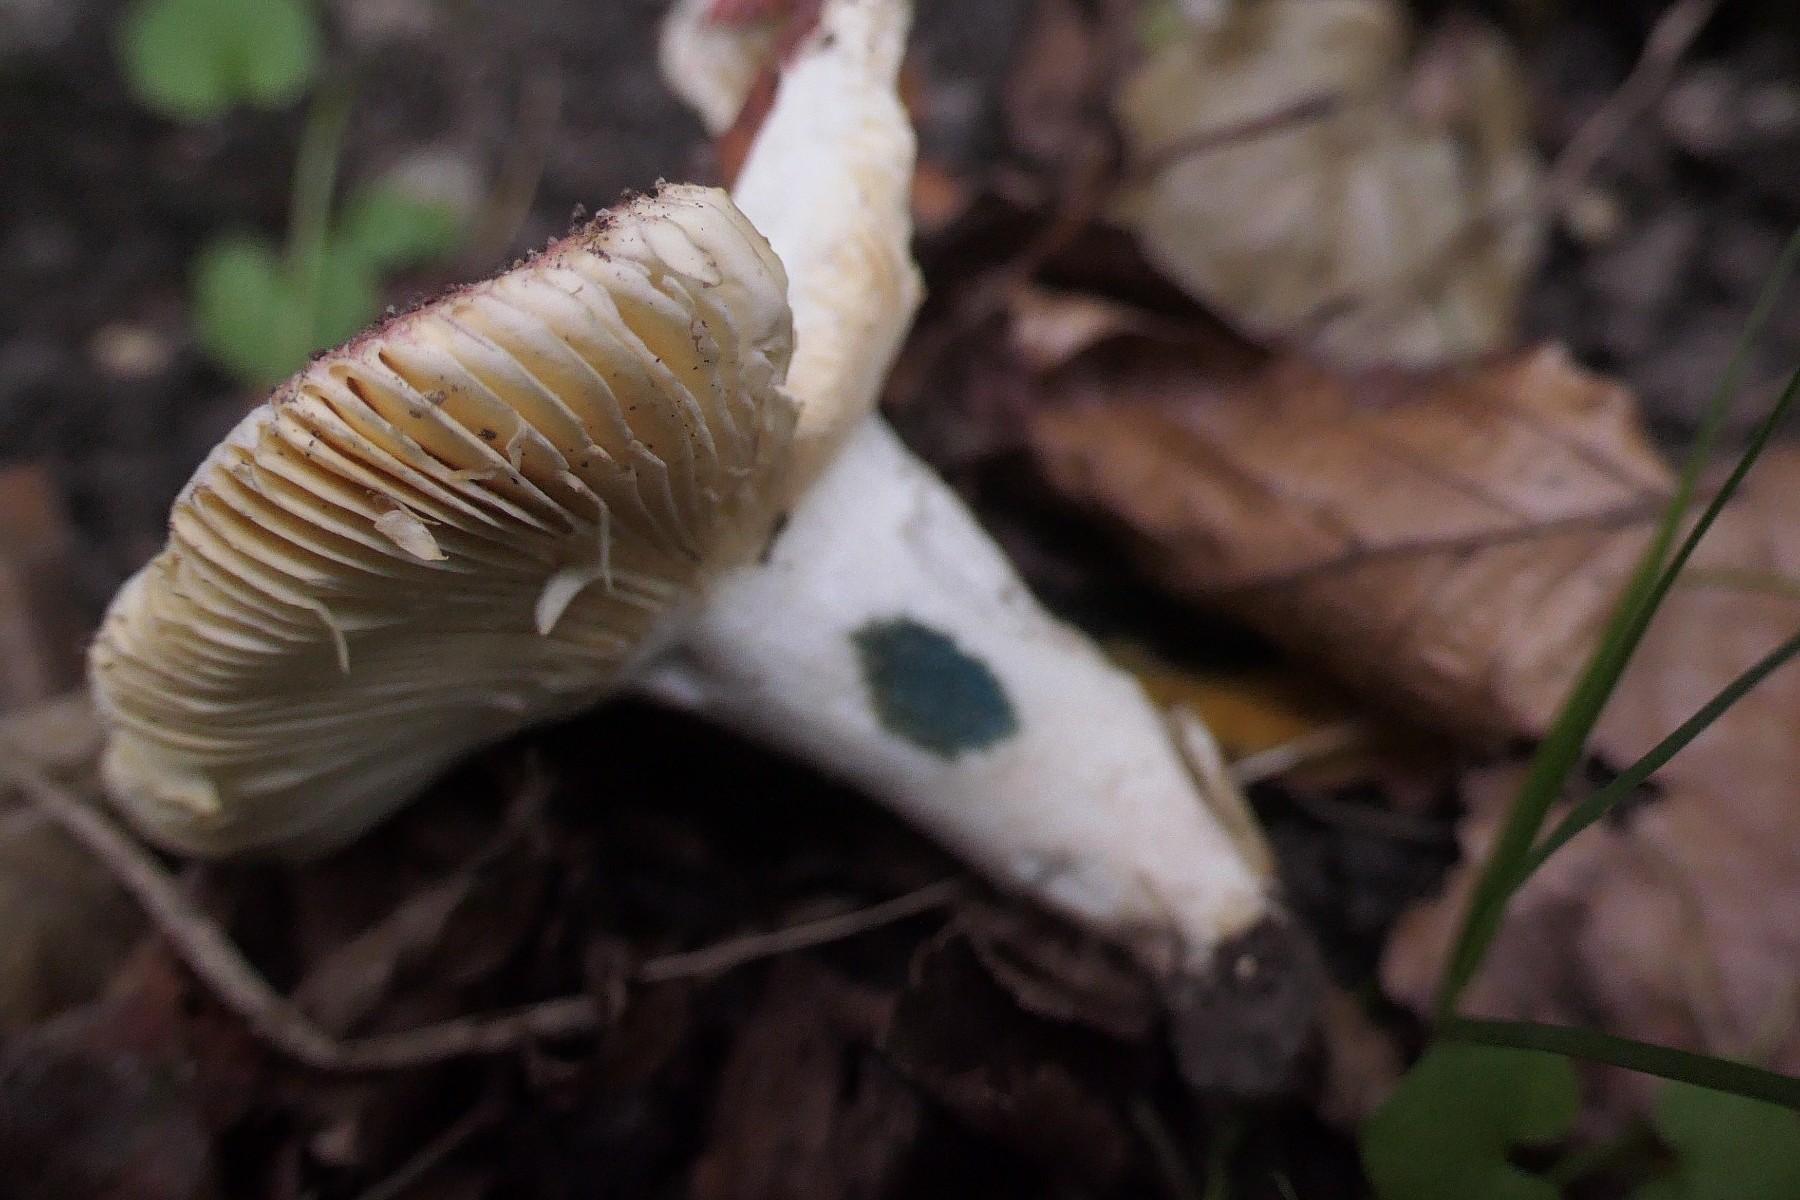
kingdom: Fungi
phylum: Basidiomycota
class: Agaricomycetes
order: Russulales
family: Russulaceae
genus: Russula
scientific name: Russula veternosa
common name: blødkødet skørhat
